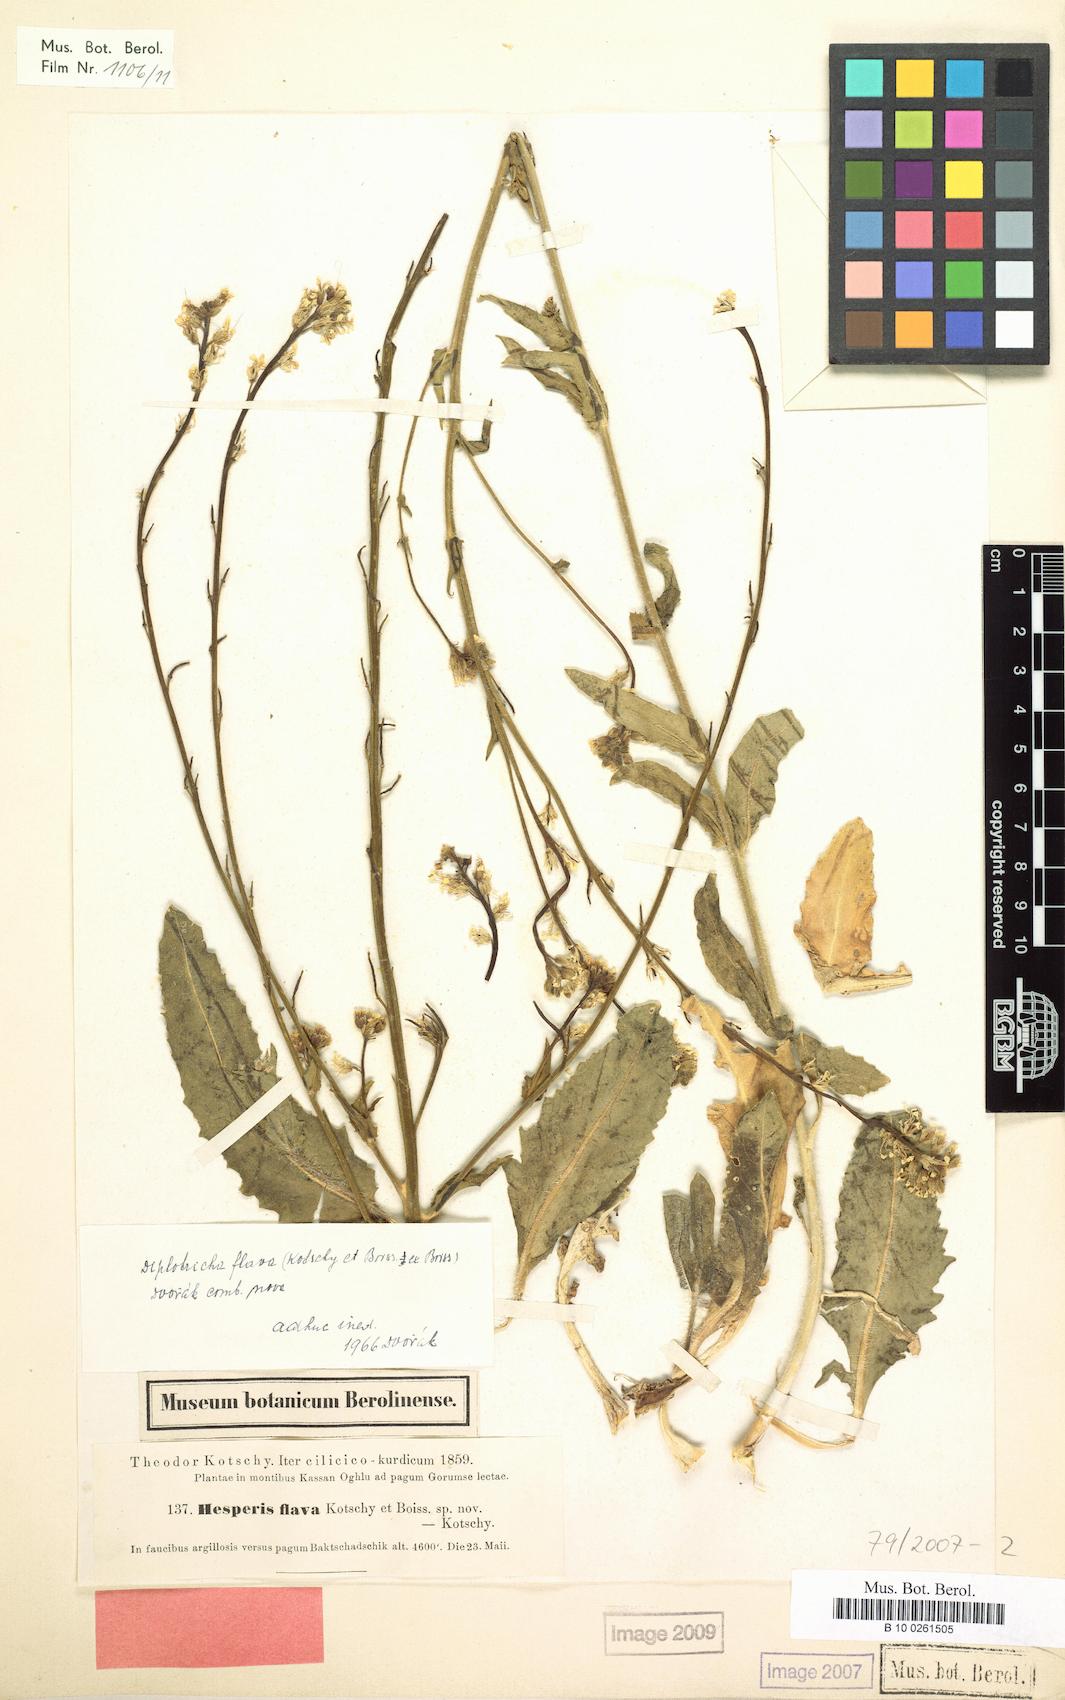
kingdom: Plantae
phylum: Tracheophyta
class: Magnoliopsida
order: Brassicales
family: Brassicaceae
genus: Hesperis
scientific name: Hesperis dvorakii
